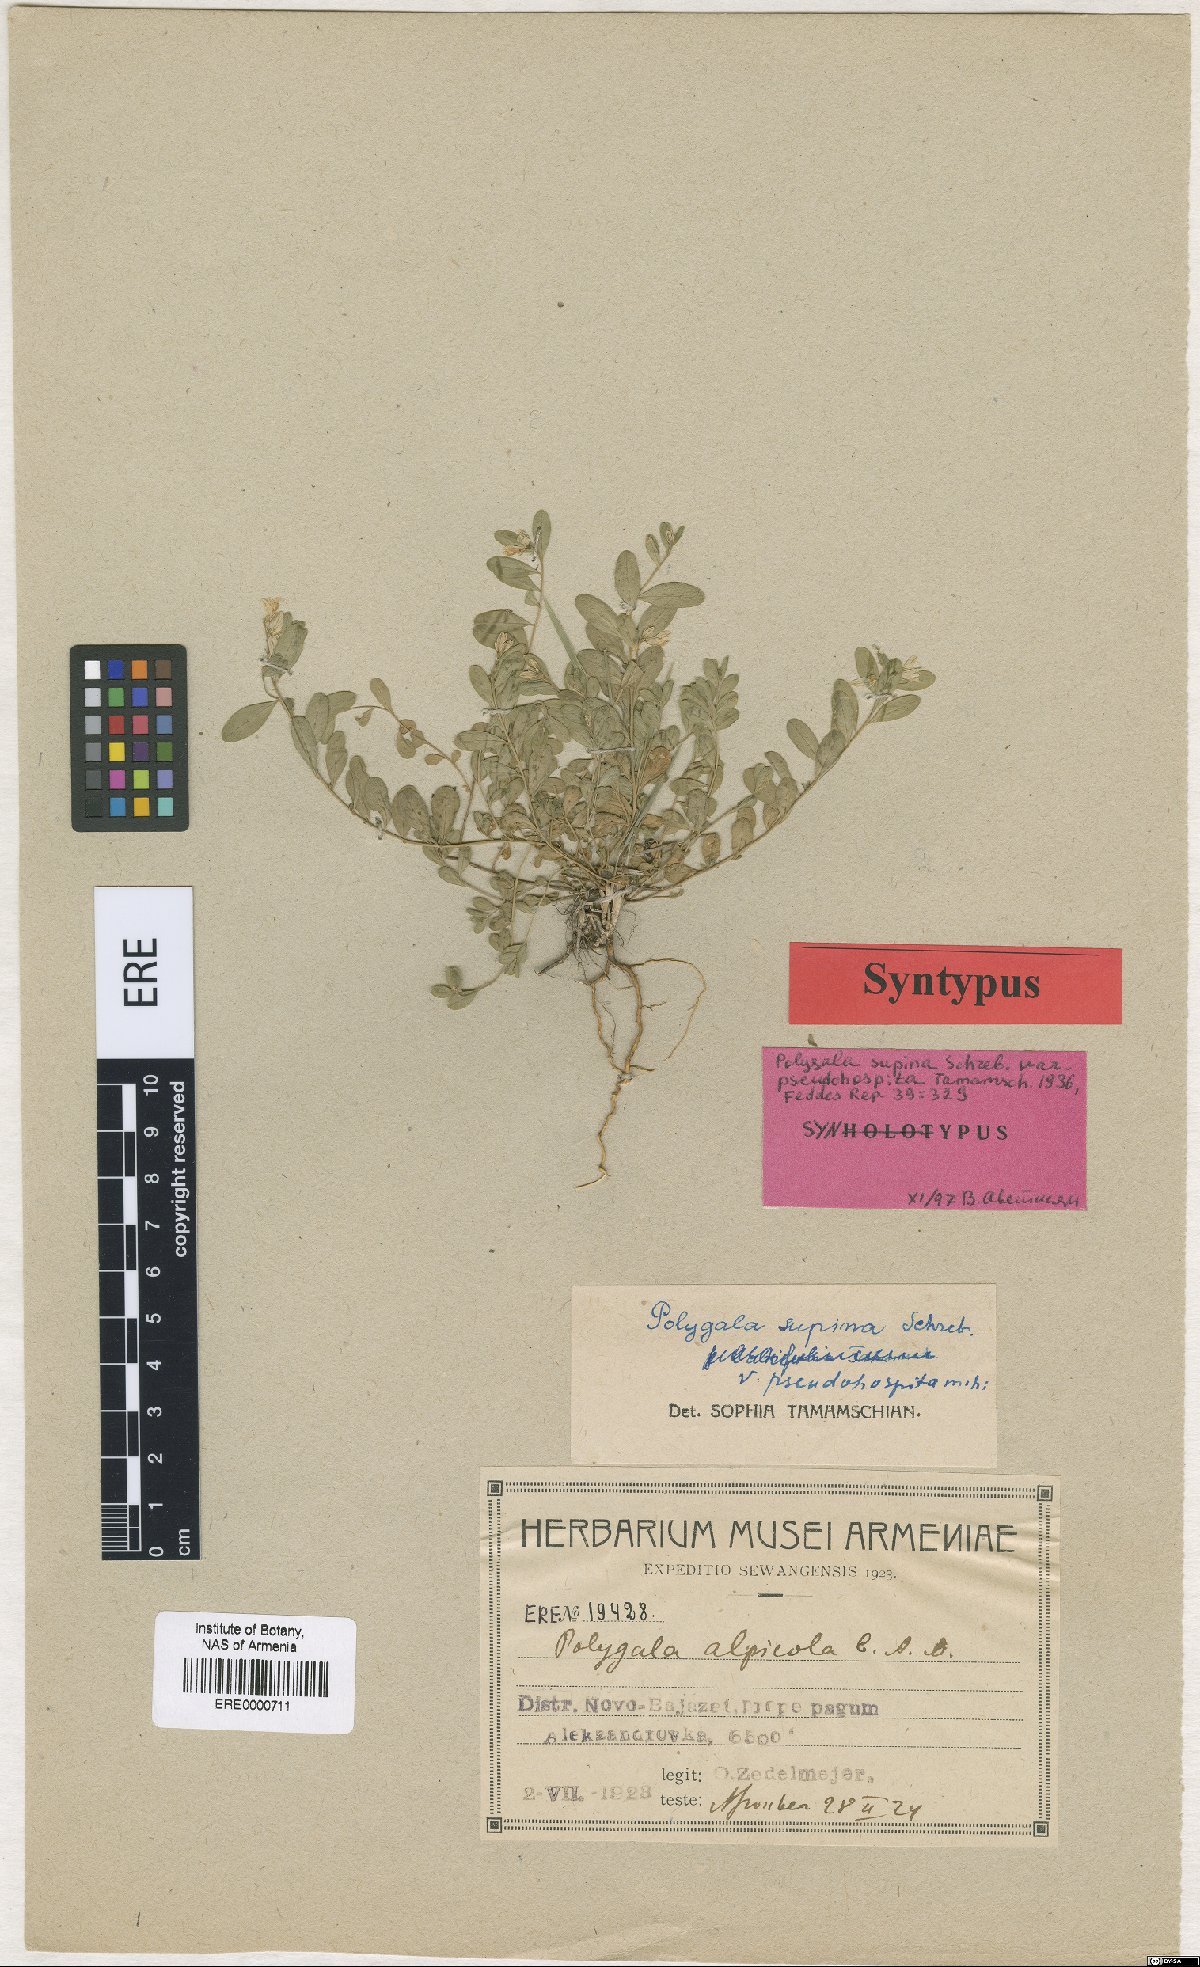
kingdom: Plantae
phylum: Tracheophyta
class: Magnoliopsida
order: Fabales
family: Polygalaceae
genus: Polygala
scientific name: Polygala pseudohospita
